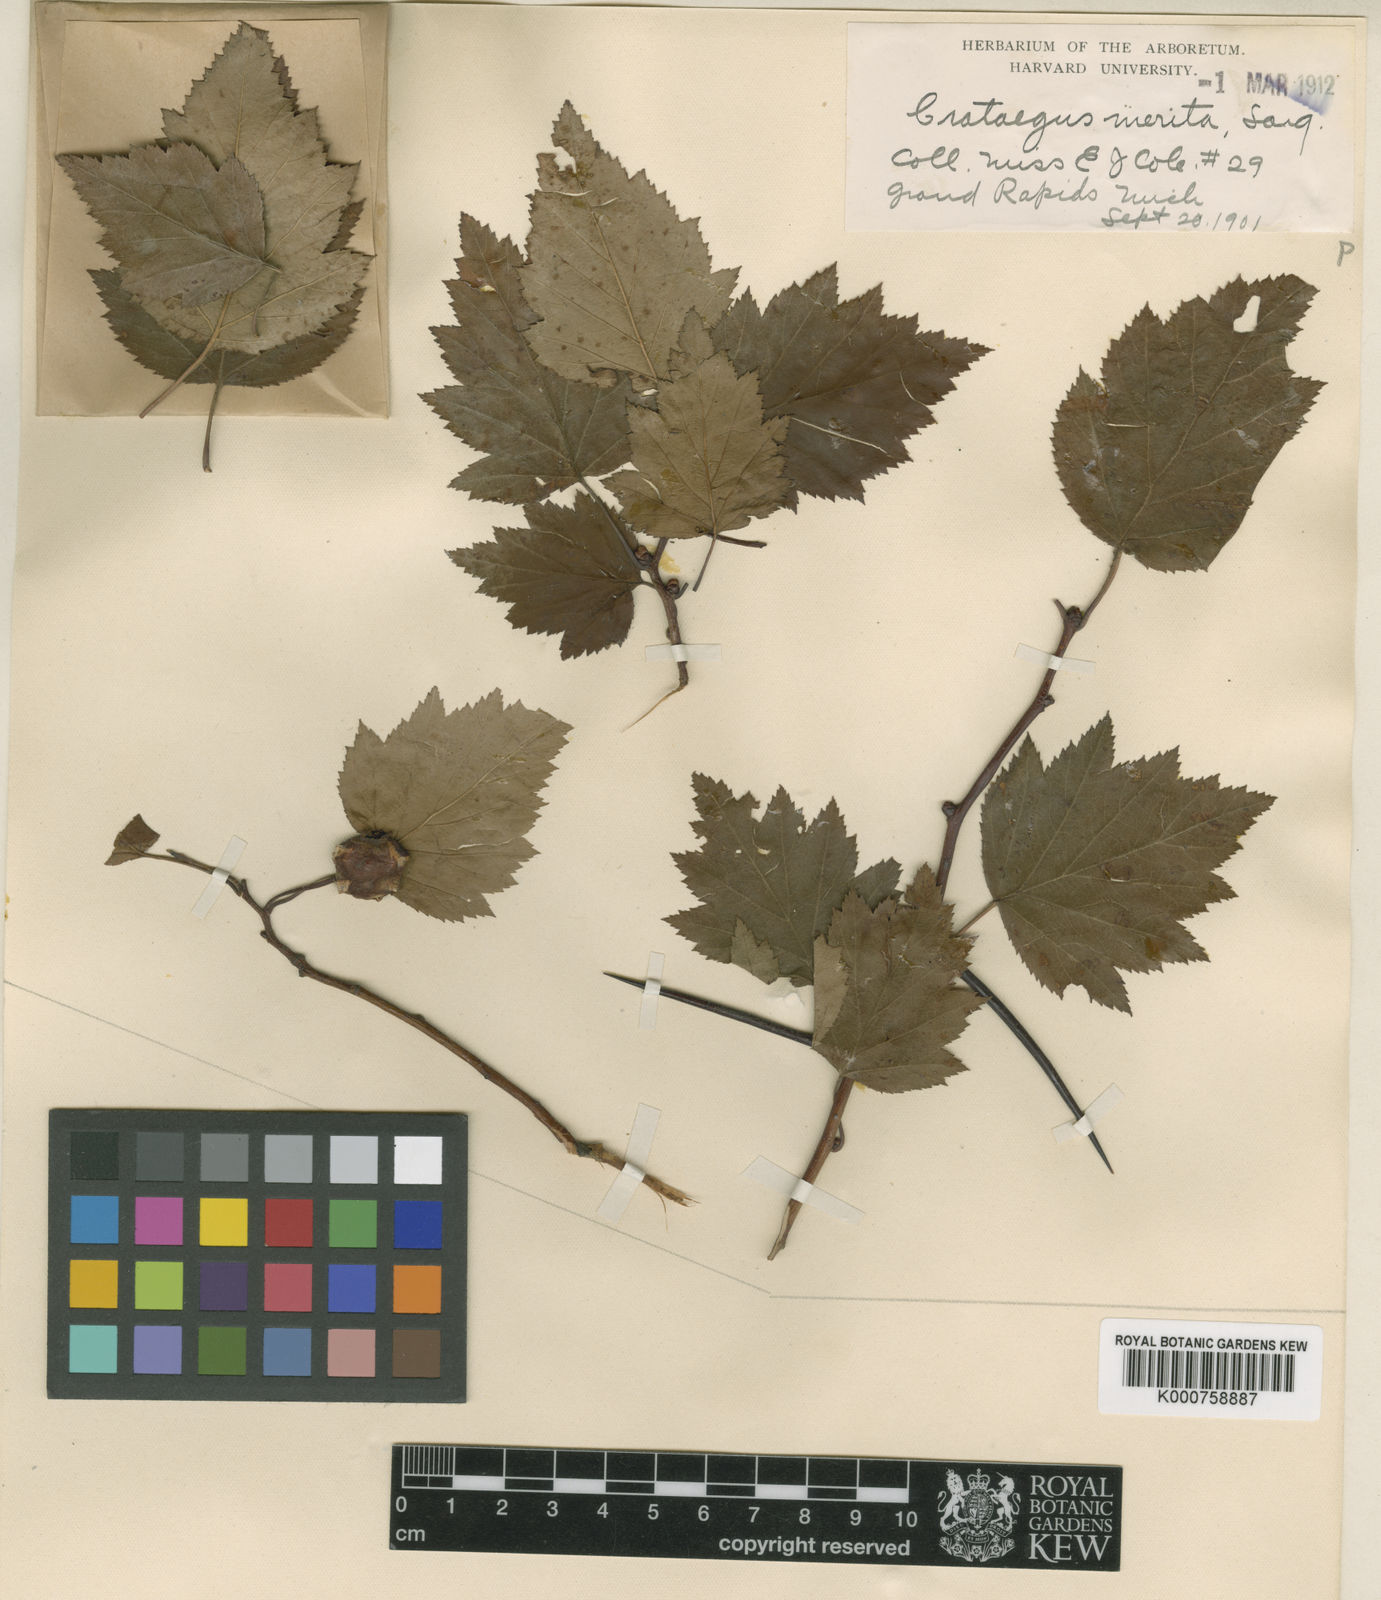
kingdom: Plantae
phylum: Tracheophyta
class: Magnoliopsida
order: Rosales
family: Rosaceae
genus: Crataegus
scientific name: Crataegus fluviatilis
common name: Fort sheridan hawthorn
